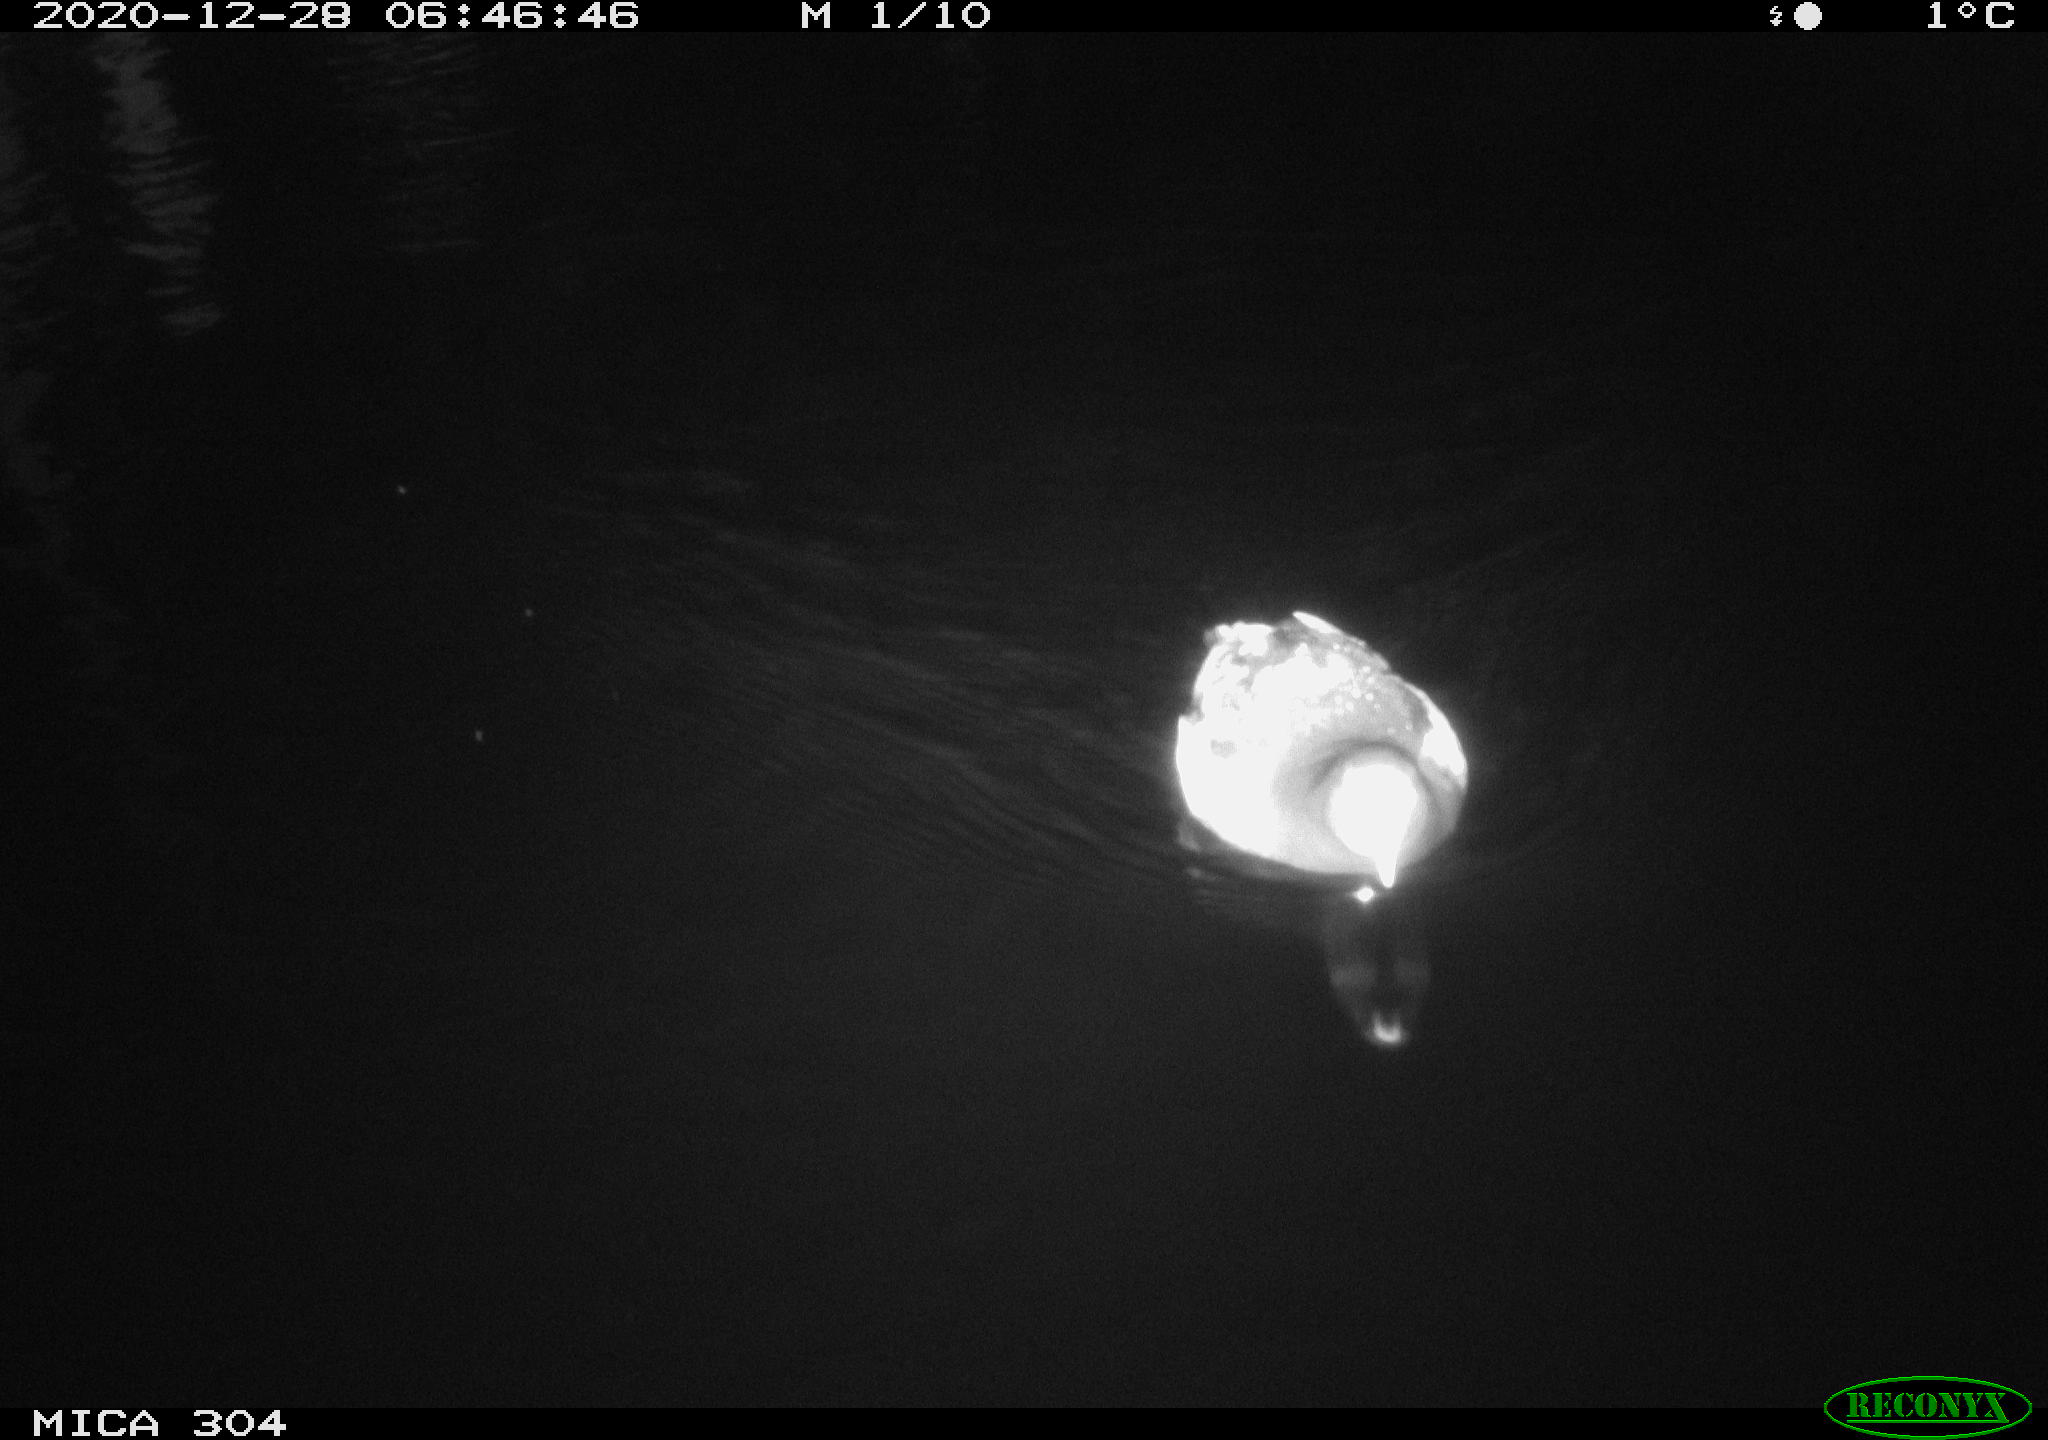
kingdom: Animalia
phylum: Chordata
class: Aves
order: Gruiformes
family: Rallidae
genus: Gallinula
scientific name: Gallinula chloropus
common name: Common moorhen
